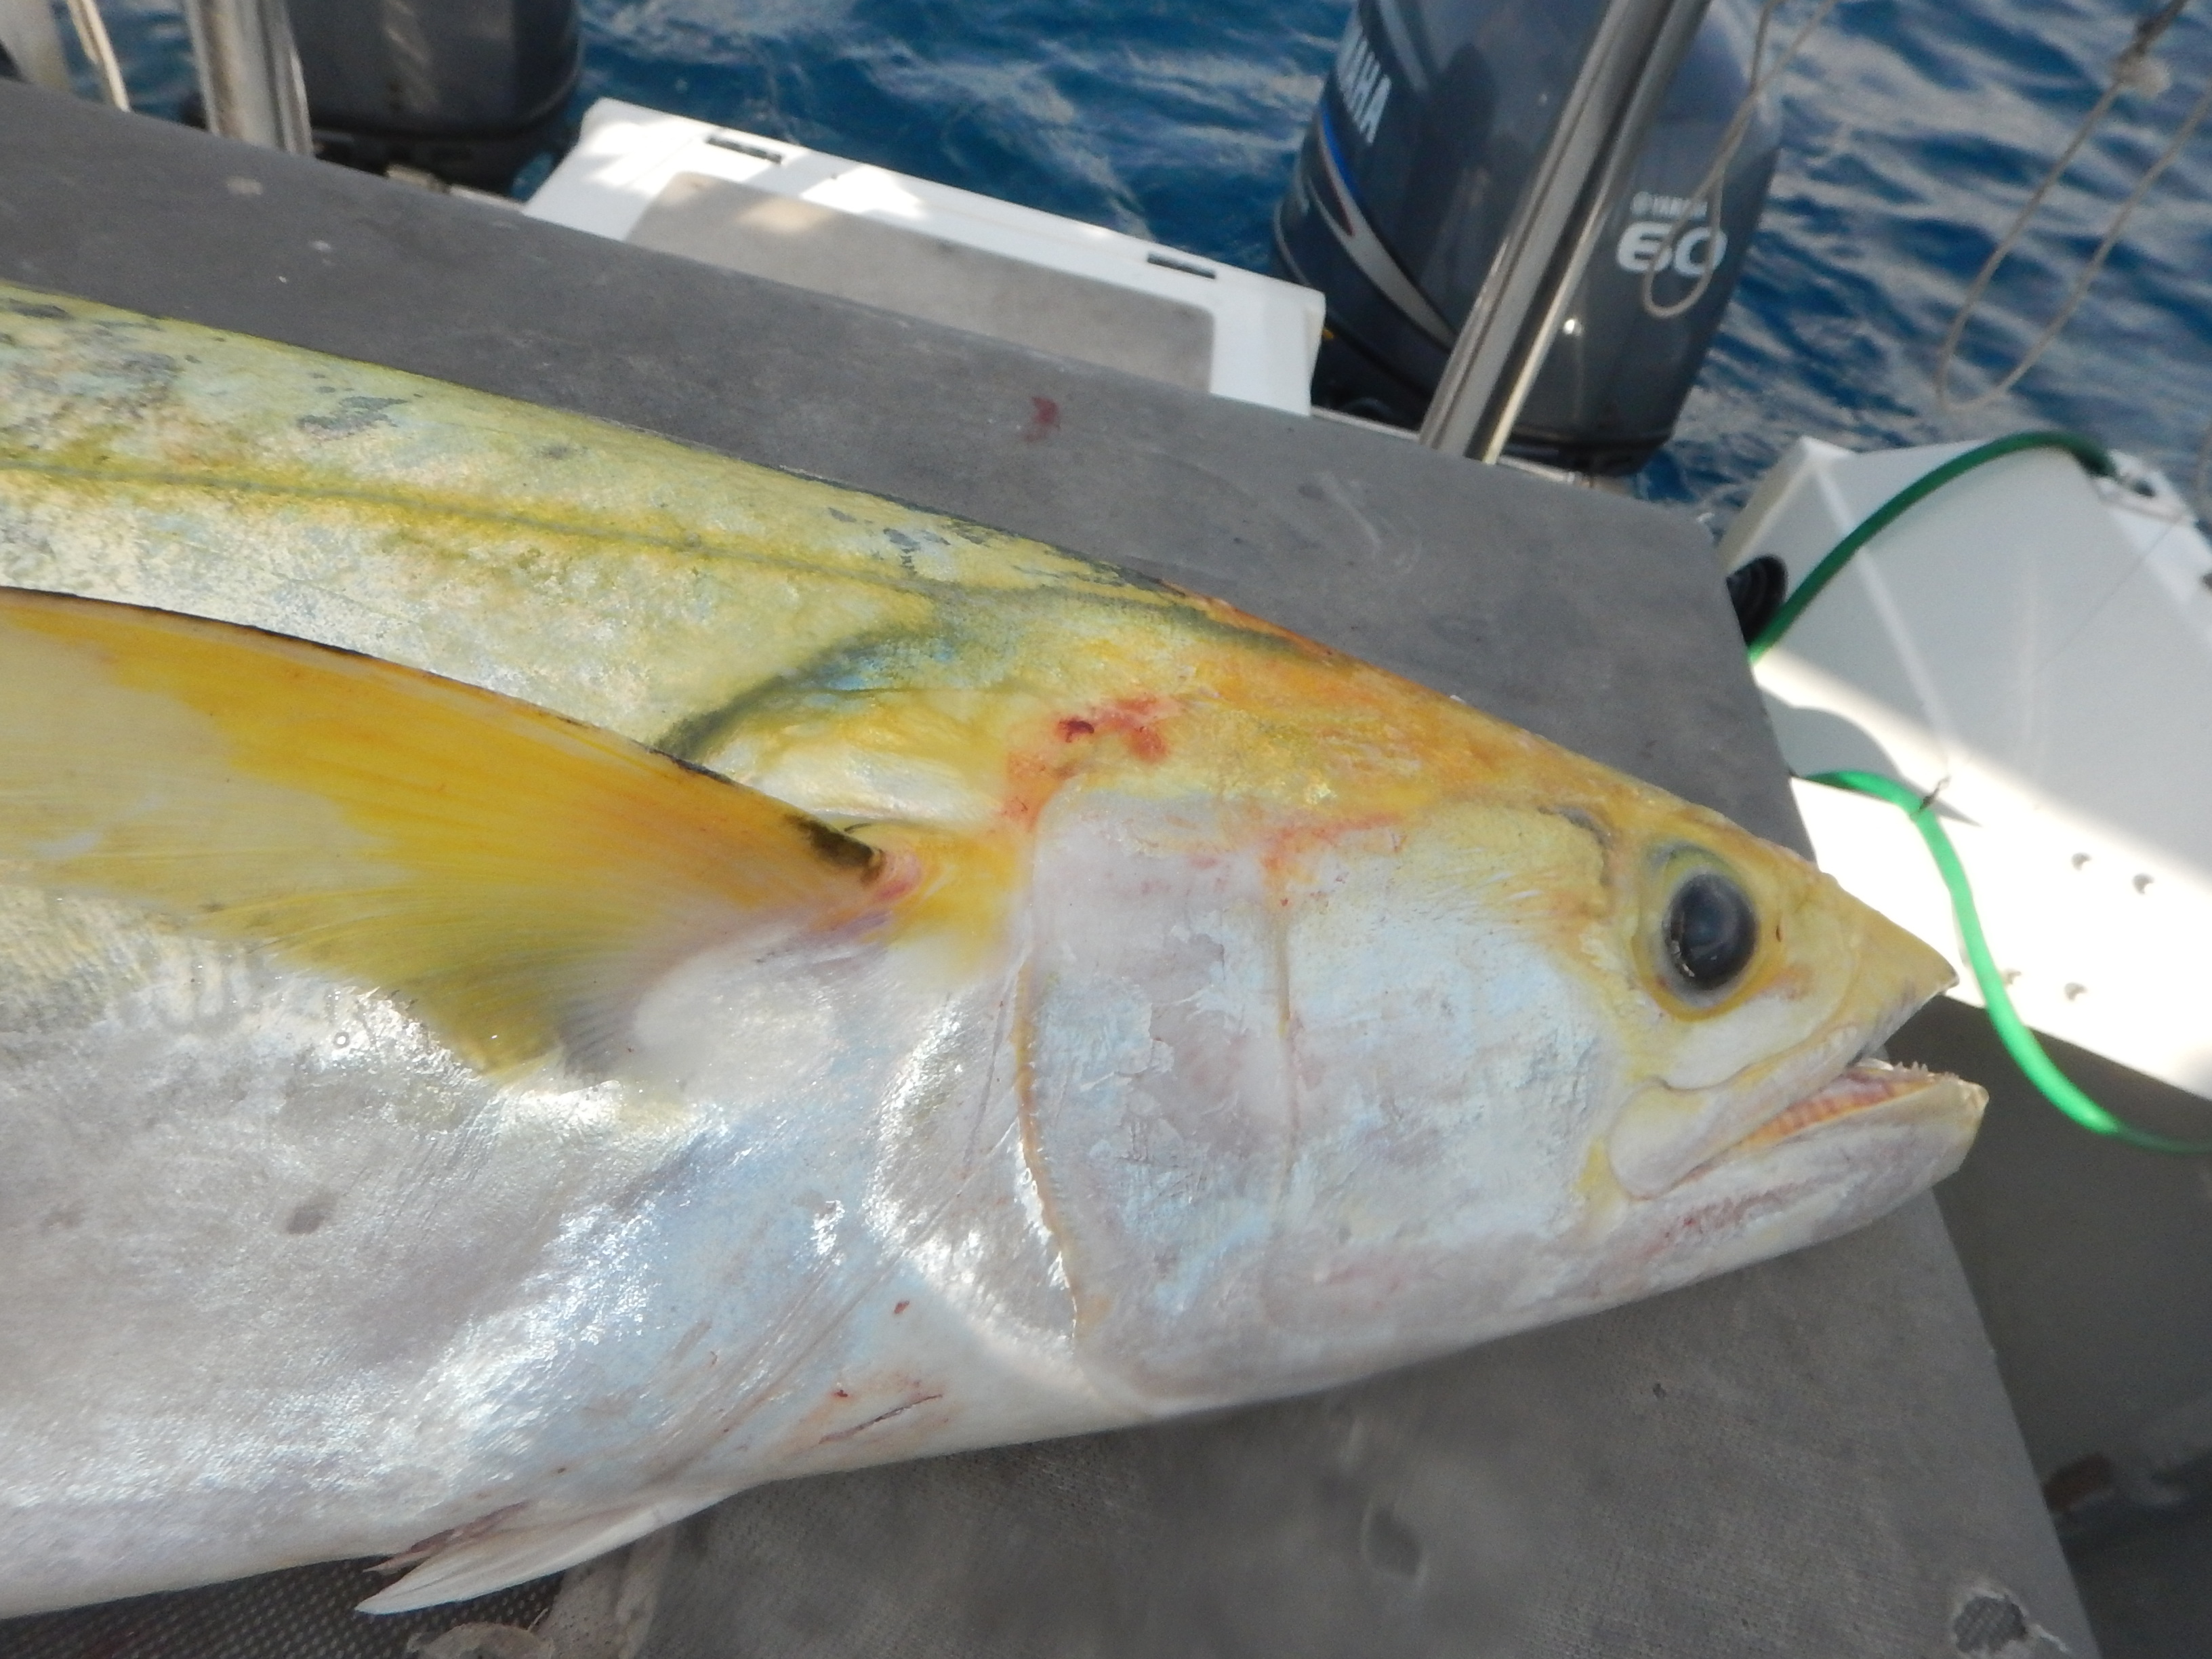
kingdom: Animalia
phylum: Chordata
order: Perciformes
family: Scombridae
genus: Scomberomorus
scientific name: Scomberomorus commerson
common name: Narrow-barred spanish mackerel
